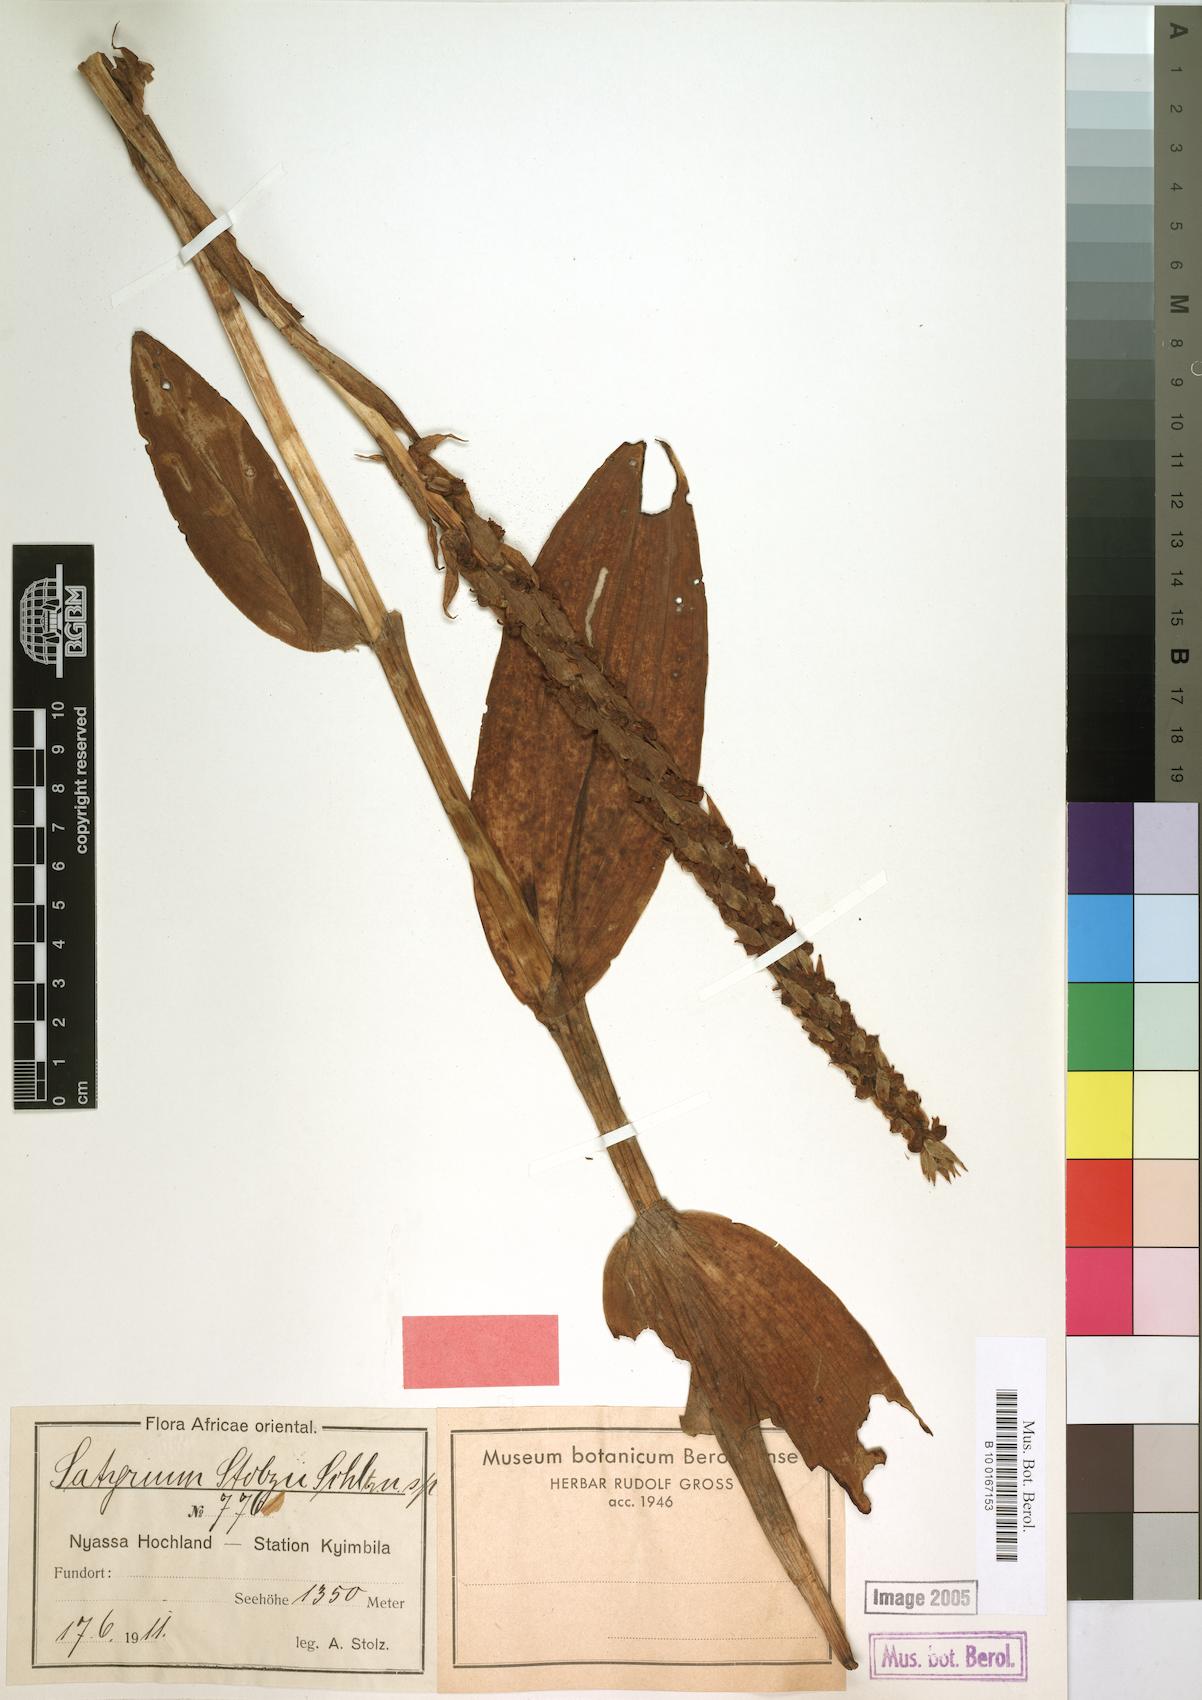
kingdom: Plantae
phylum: Tracheophyta
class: Liliopsida
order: Asparagales
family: Orchidaceae
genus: Satyrium
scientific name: Satyrium coriophoroides
